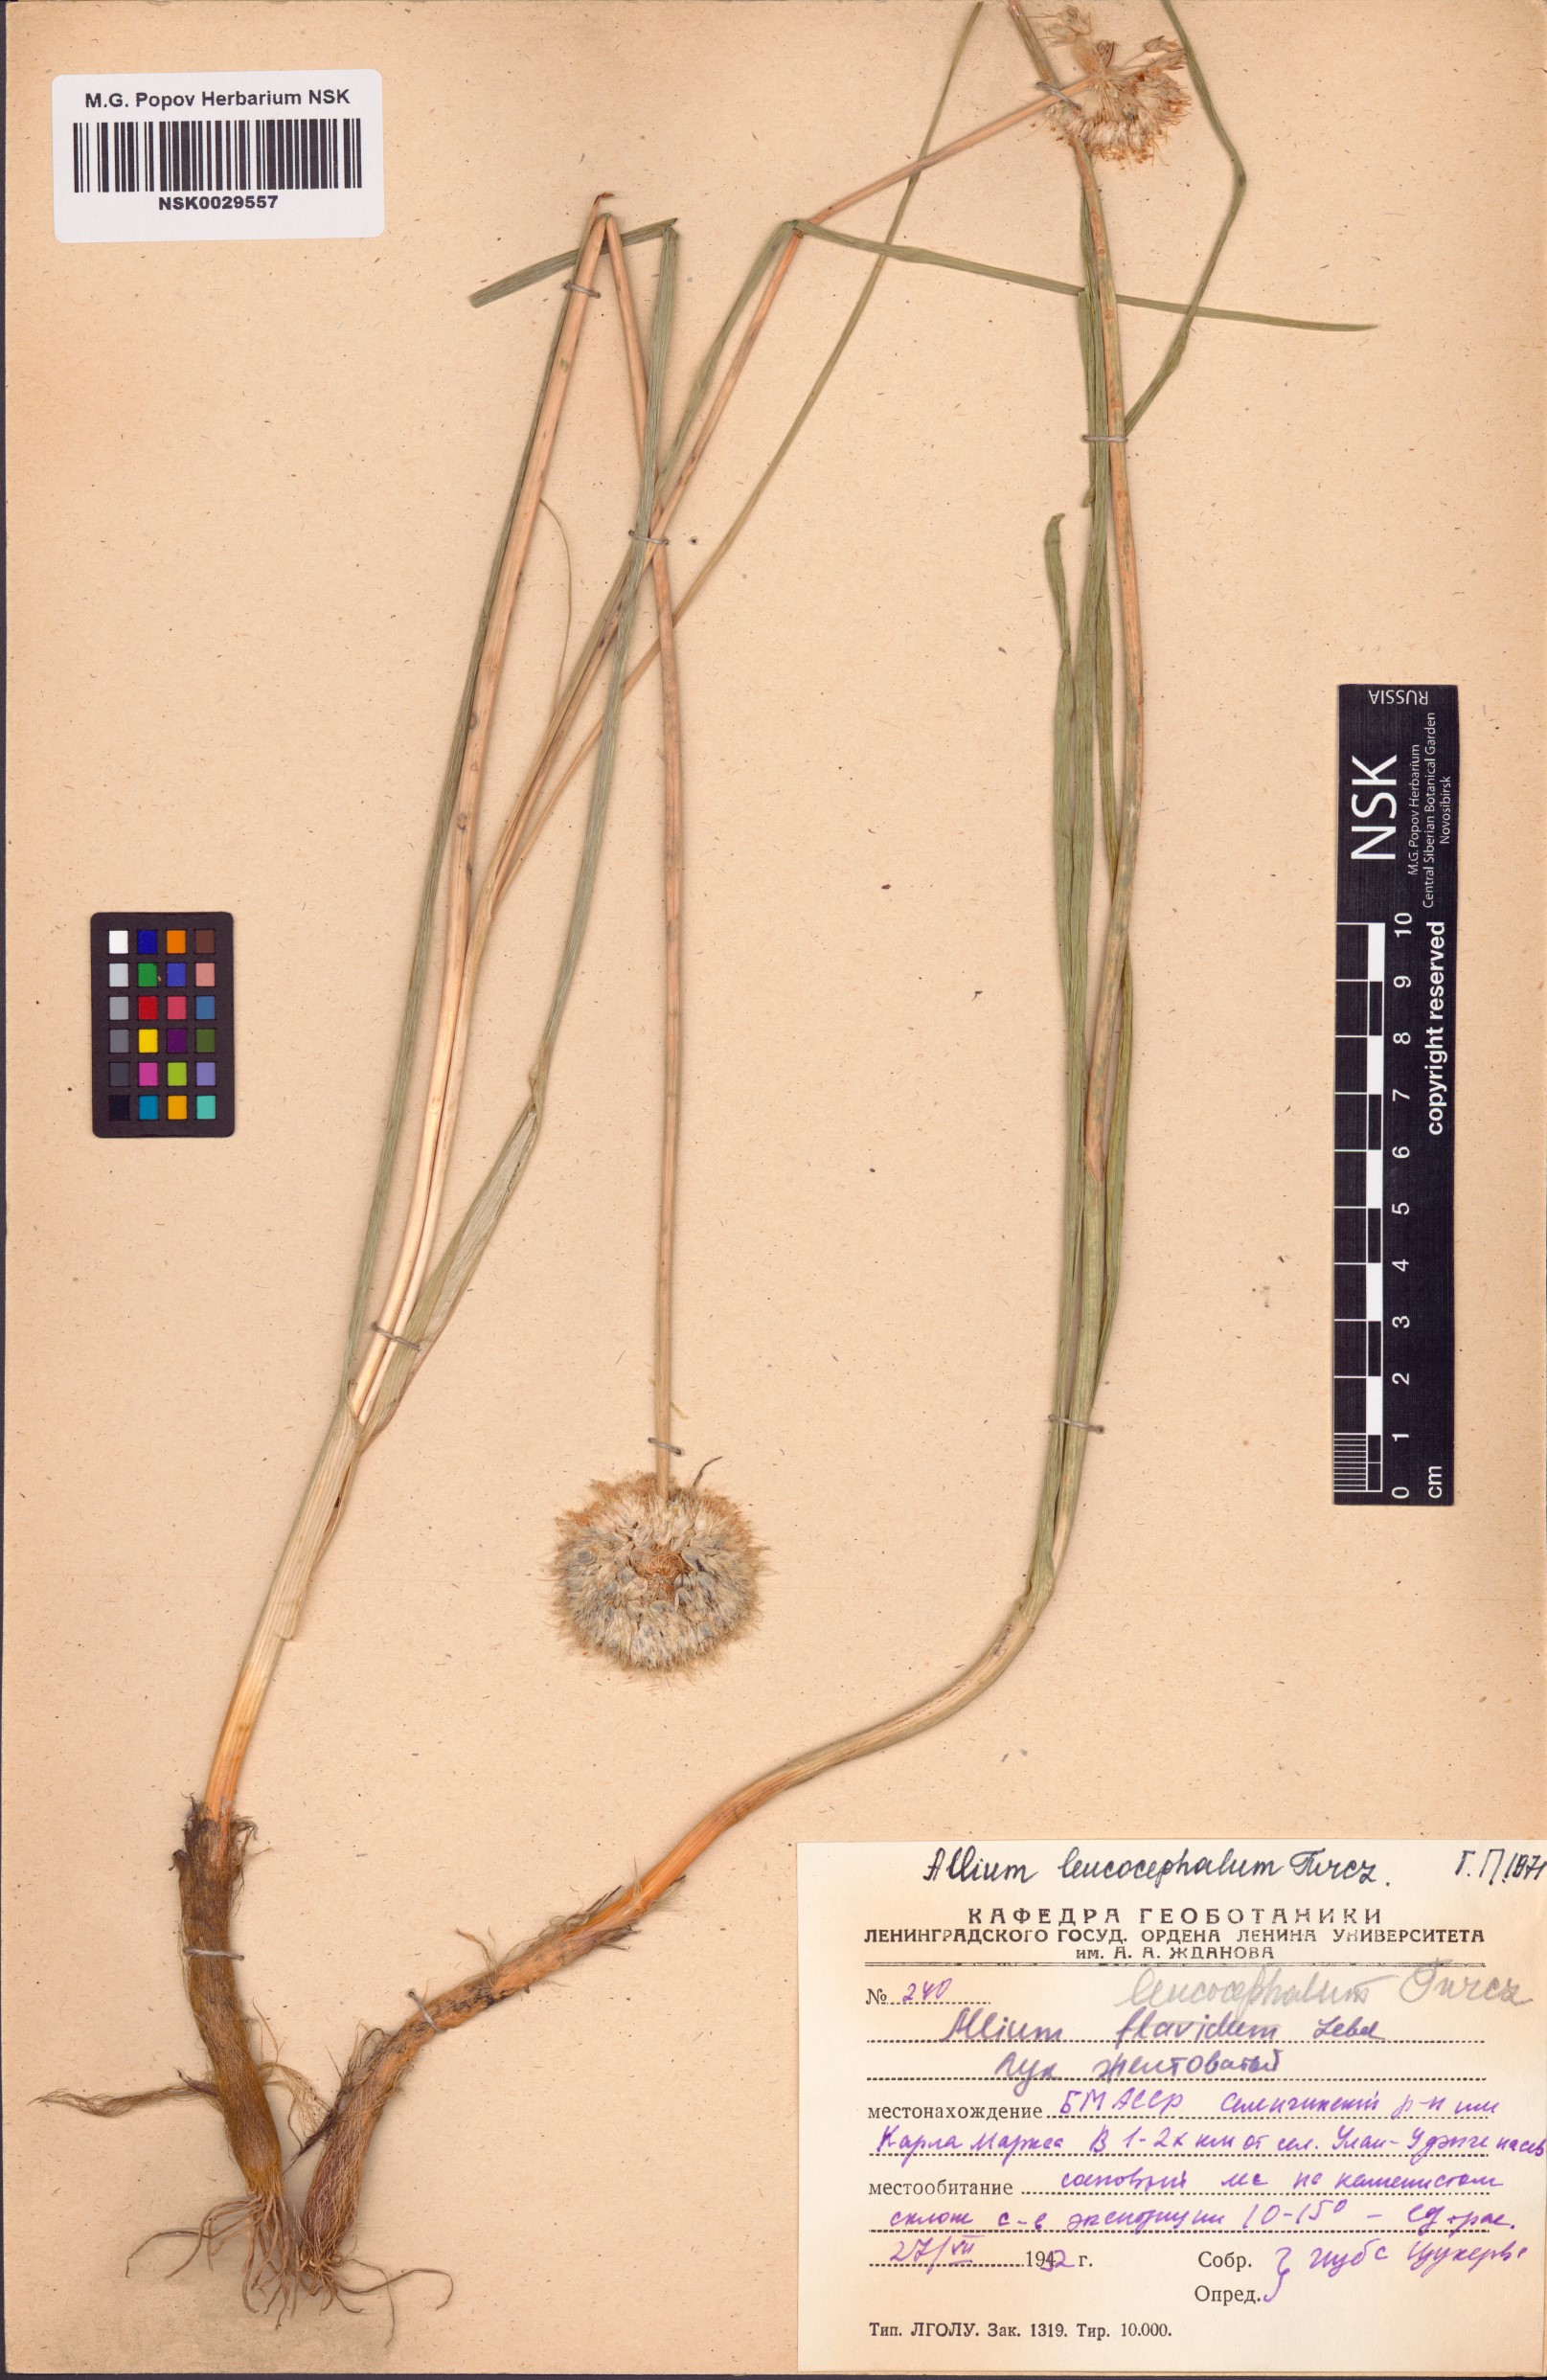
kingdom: Plantae
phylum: Tracheophyta
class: Liliopsida
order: Asparagales
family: Amaryllidaceae
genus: Allium
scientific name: Allium leucocephalum
